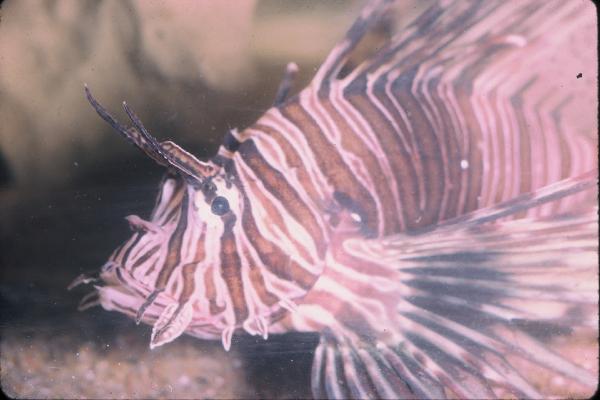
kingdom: Animalia
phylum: Chordata
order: Scorpaeniformes
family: Scorpaenidae
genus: Pterois
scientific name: Pterois miles
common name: Devil firefish
